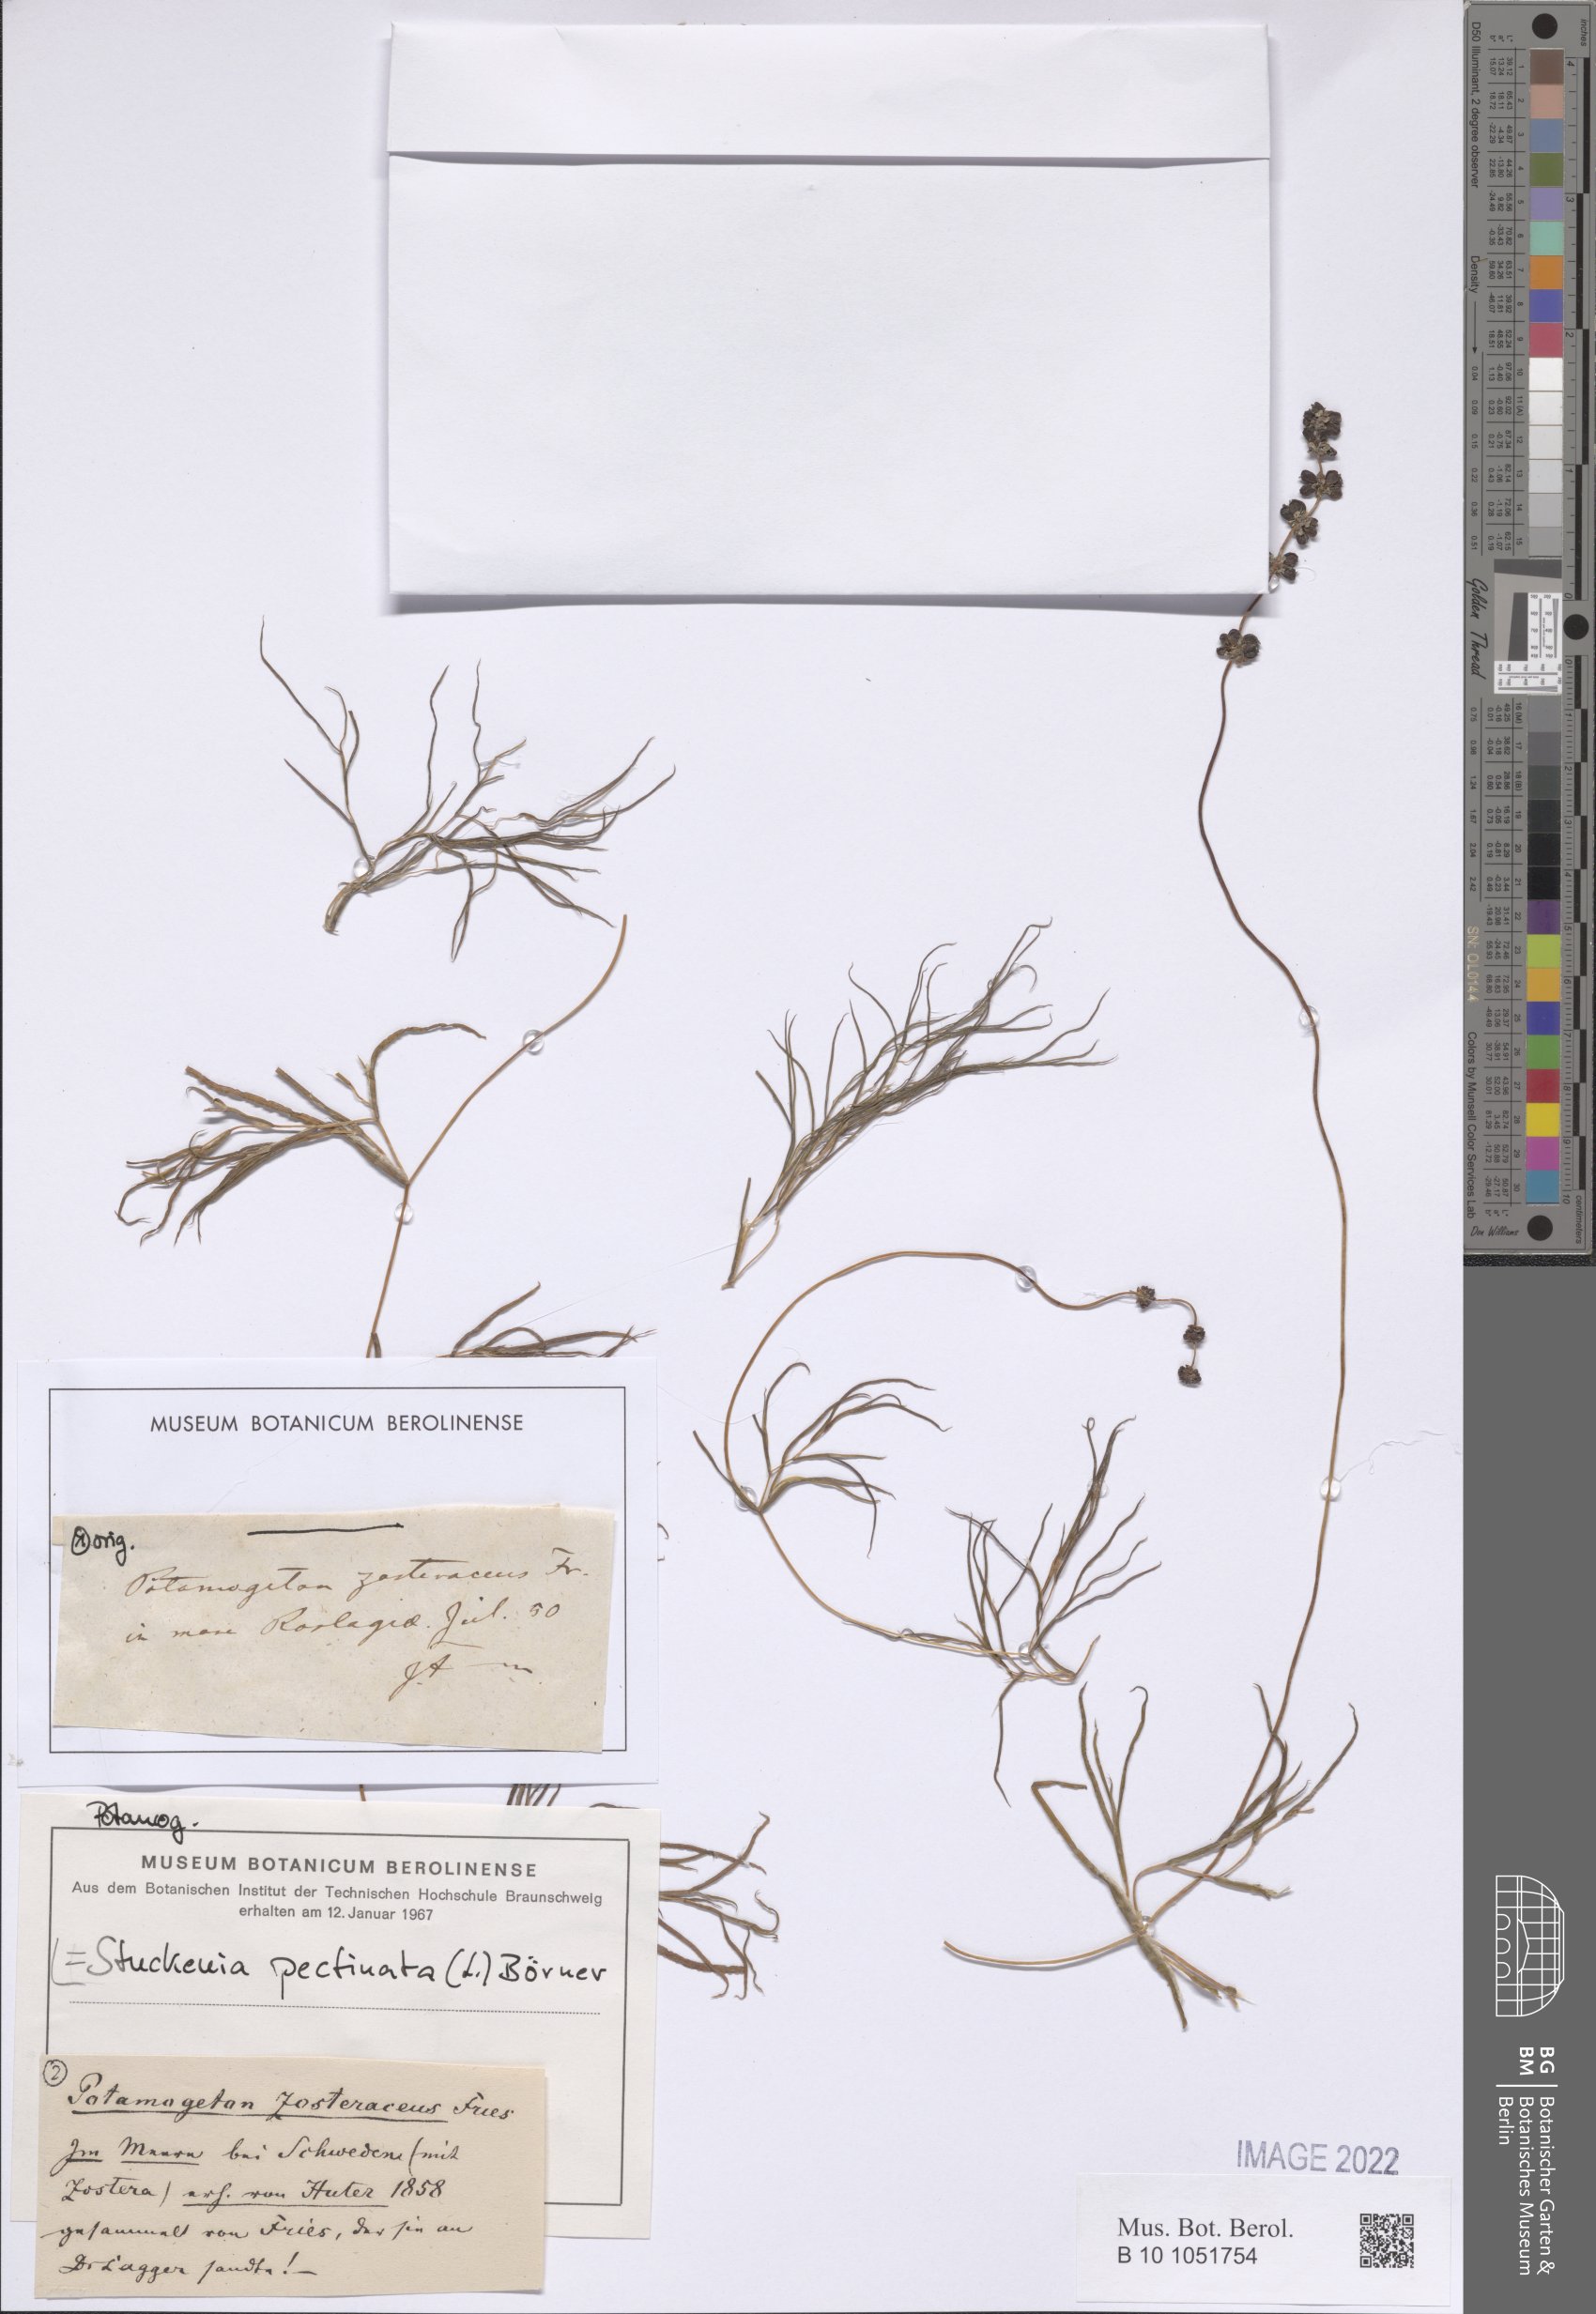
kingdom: Plantae
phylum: Tracheophyta
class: Liliopsida
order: Alismatales
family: Potamogetonaceae
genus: Stuckenia
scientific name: Stuckenia pectinata
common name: Sago pondweed
